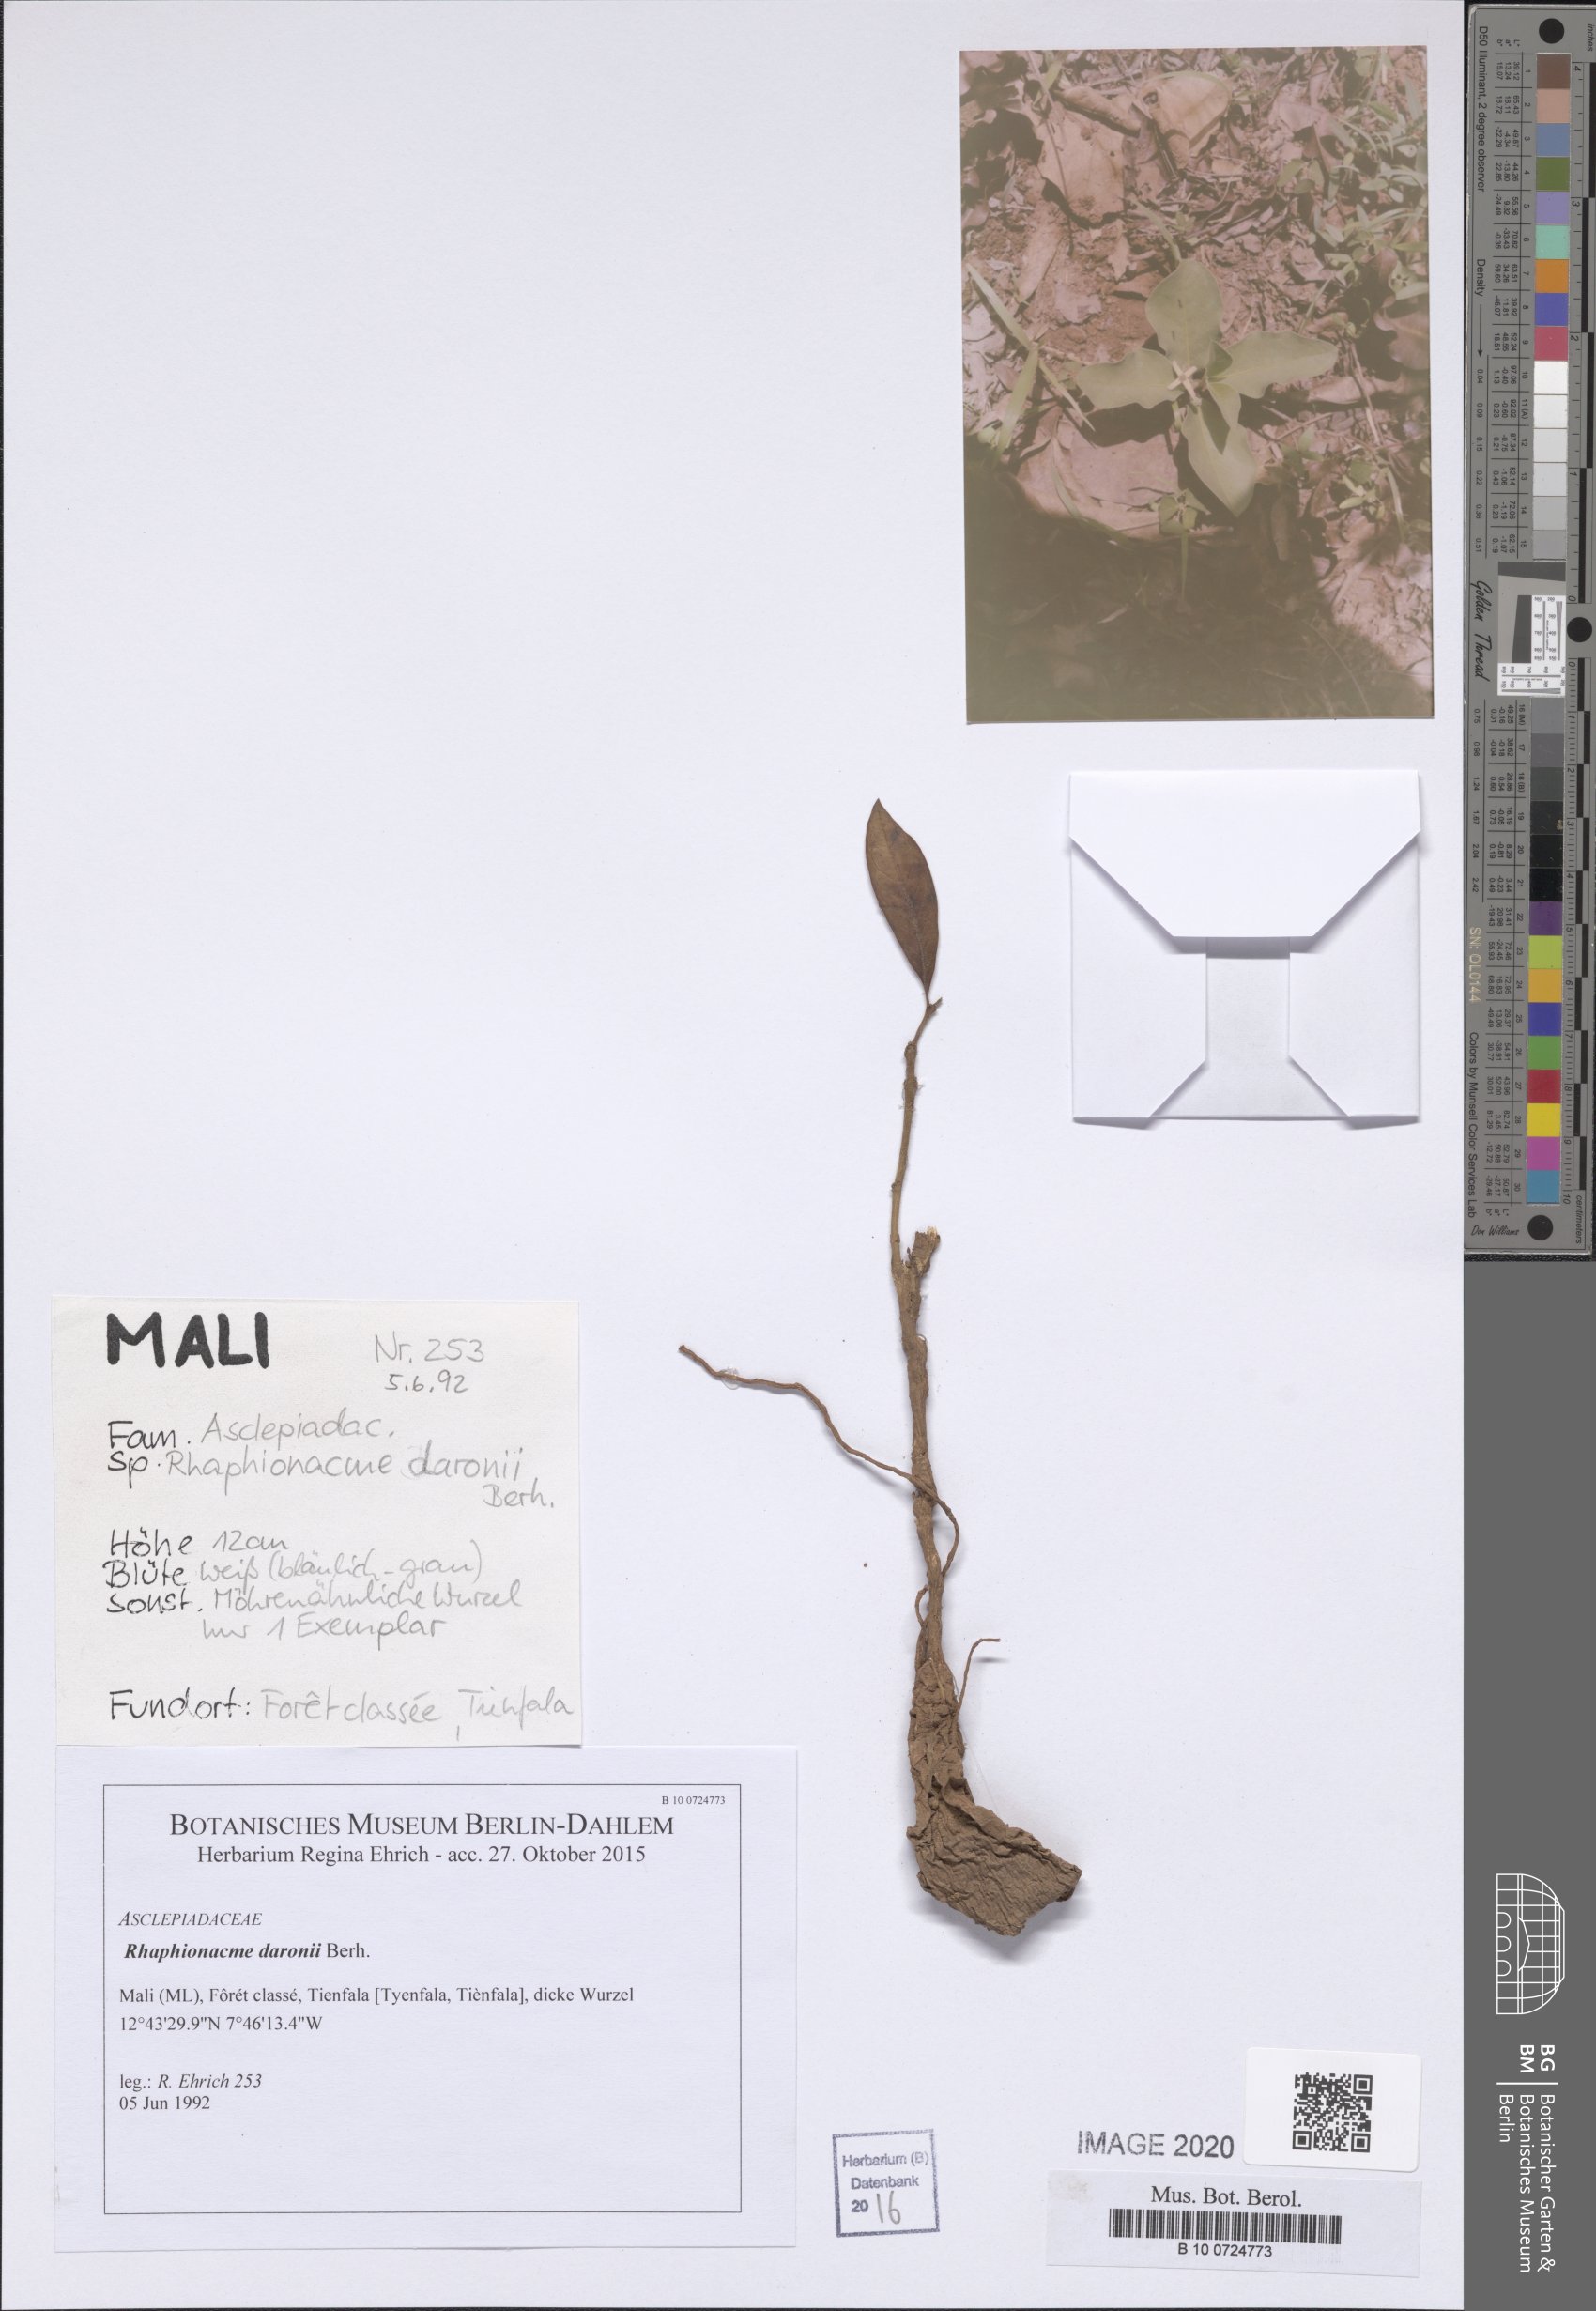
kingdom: Plantae
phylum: Tracheophyta
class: Magnoliopsida
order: Gentianales
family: Apocynaceae
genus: Raphionacme
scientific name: Raphionacme splendens
